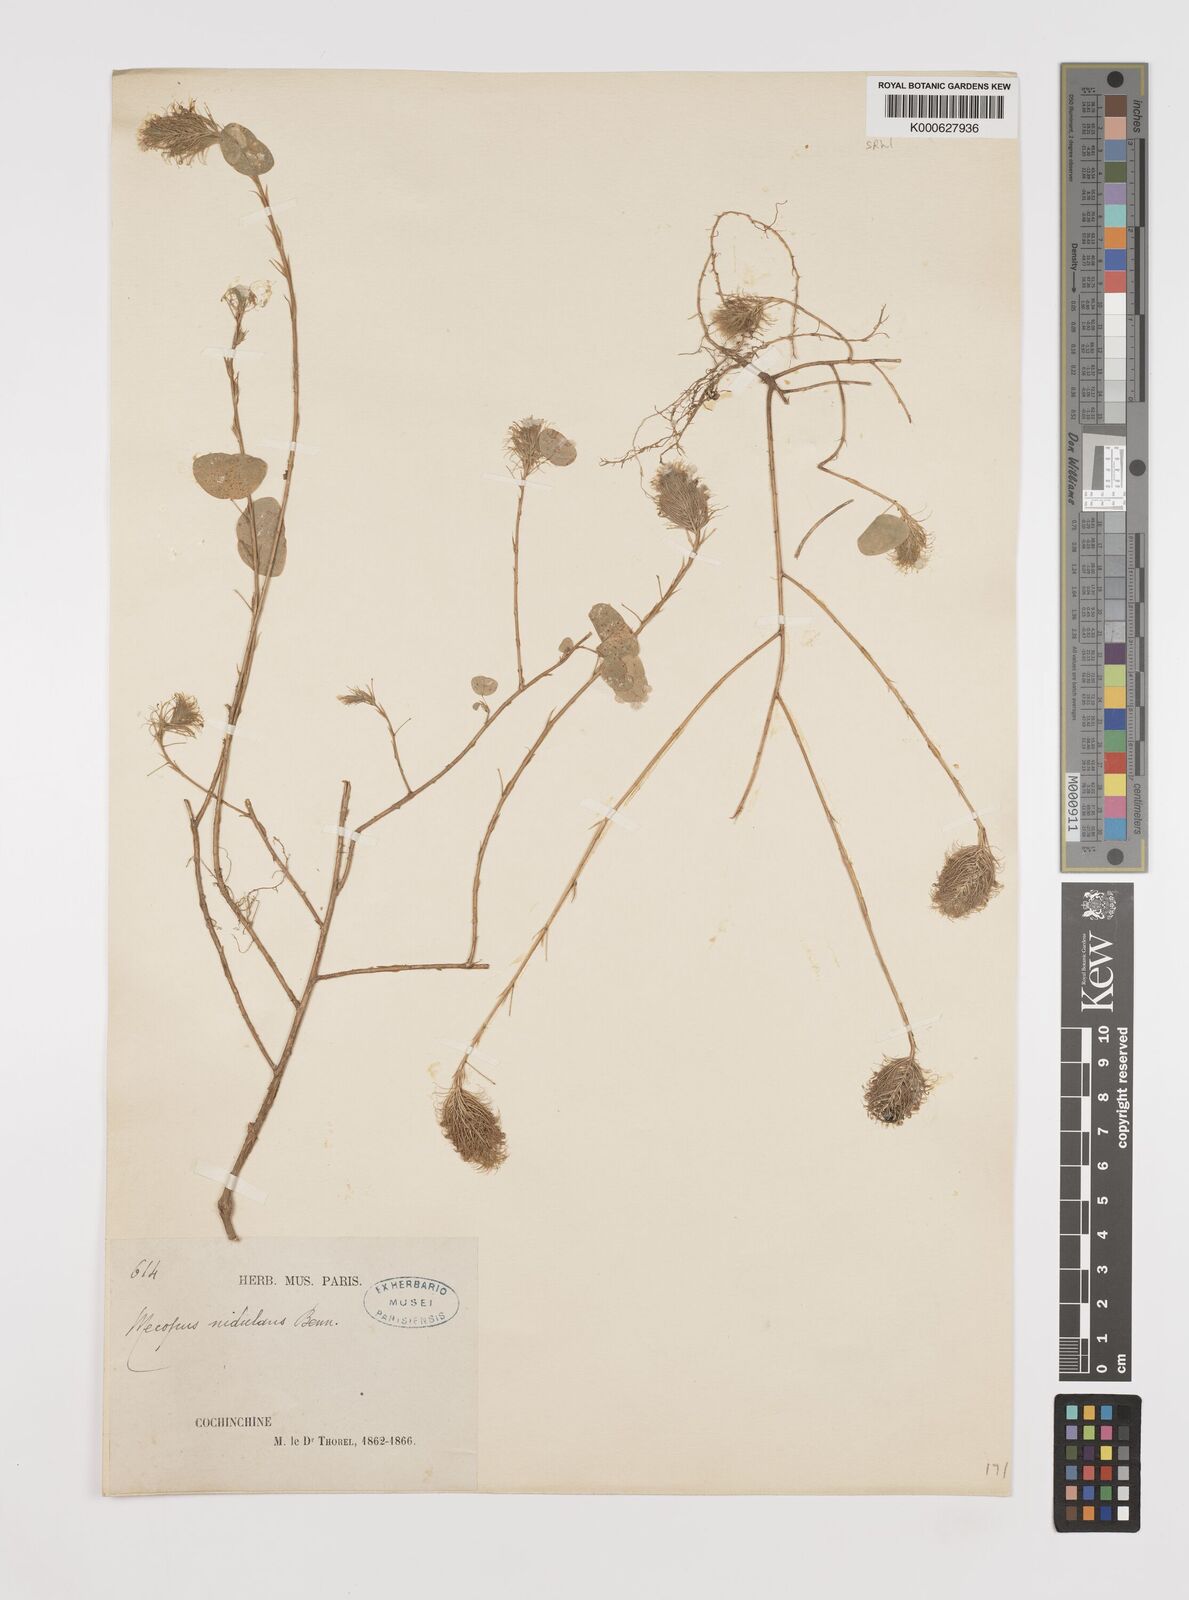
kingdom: Plantae
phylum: Tracheophyta
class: Magnoliopsida
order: Fabales
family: Fabaceae
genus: Mecopus
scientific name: Mecopus nidulans
